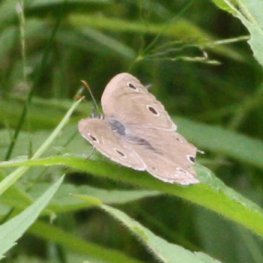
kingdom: Animalia
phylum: Arthropoda
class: Insecta
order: Lepidoptera
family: Nymphalidae
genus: Euptychia
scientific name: Euptychia cymela
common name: Little Wood Satyr
